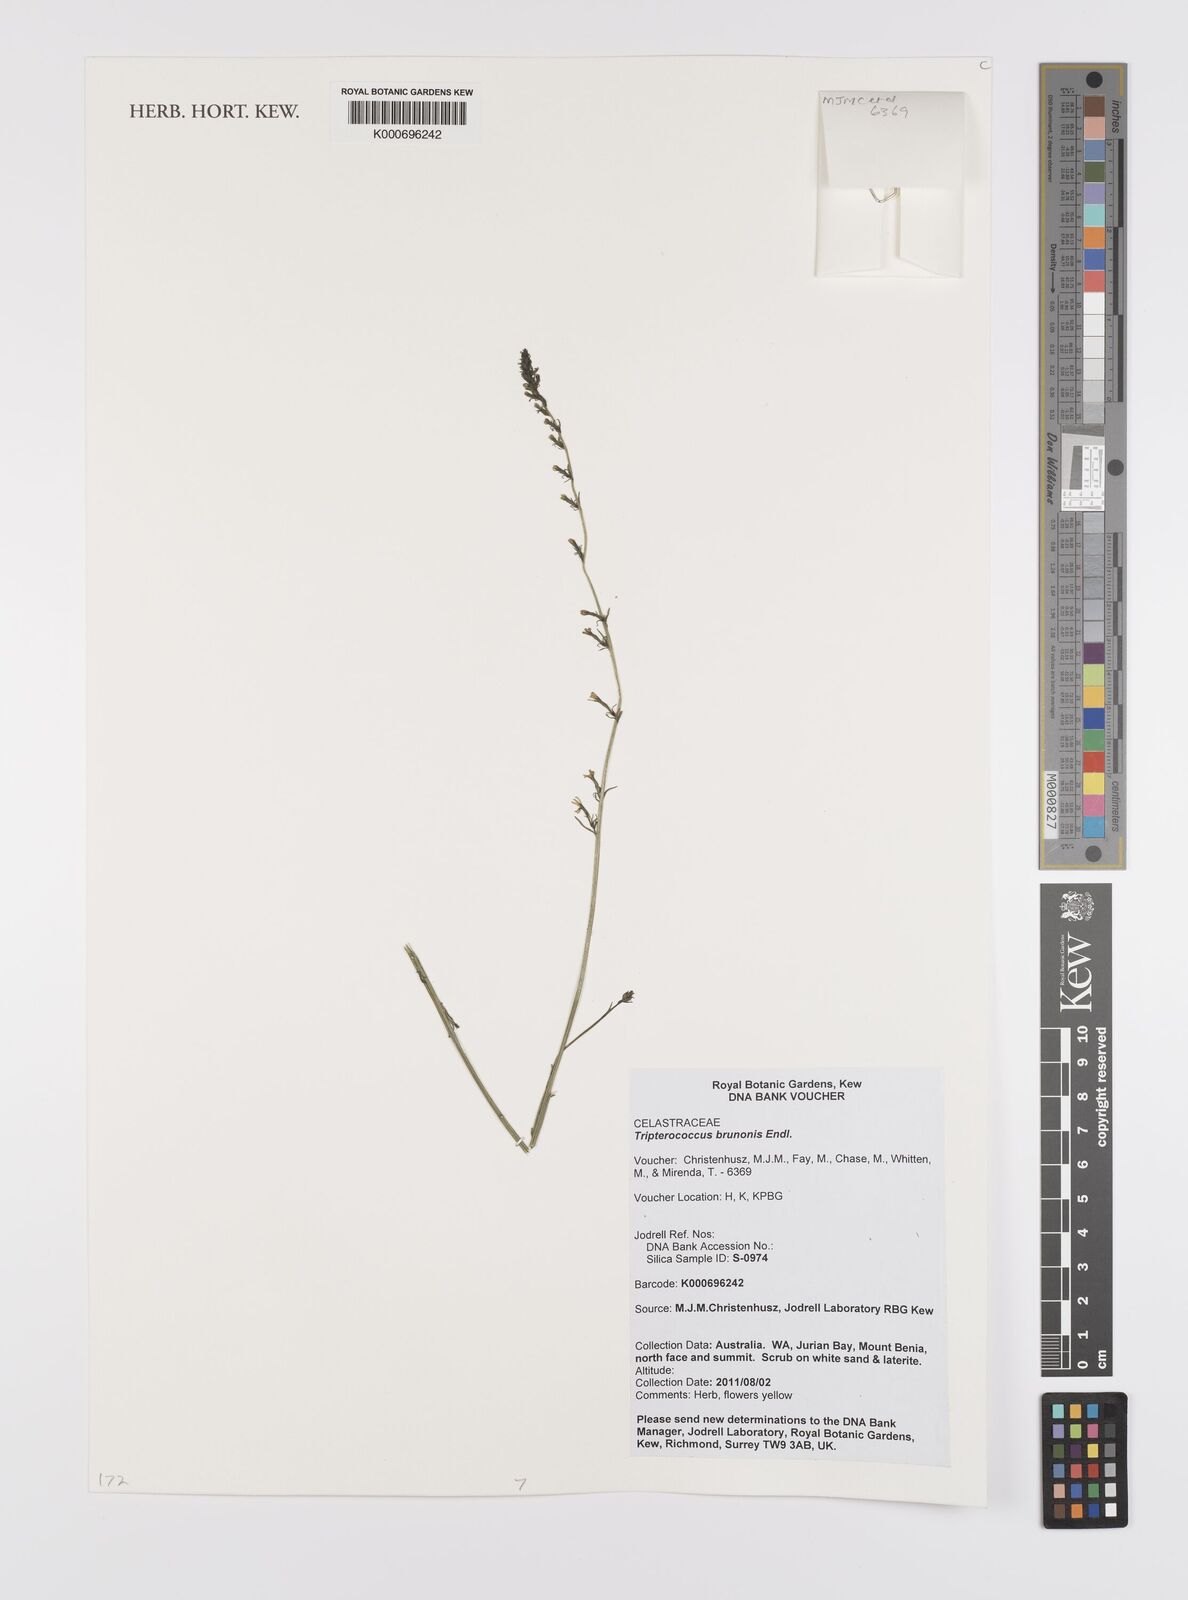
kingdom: Plantae
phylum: Tracheophyta
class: Magnoliopsida
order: Celastrales
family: Celastraceae
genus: Tripterococcus
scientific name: Tripterococcus brunonis
